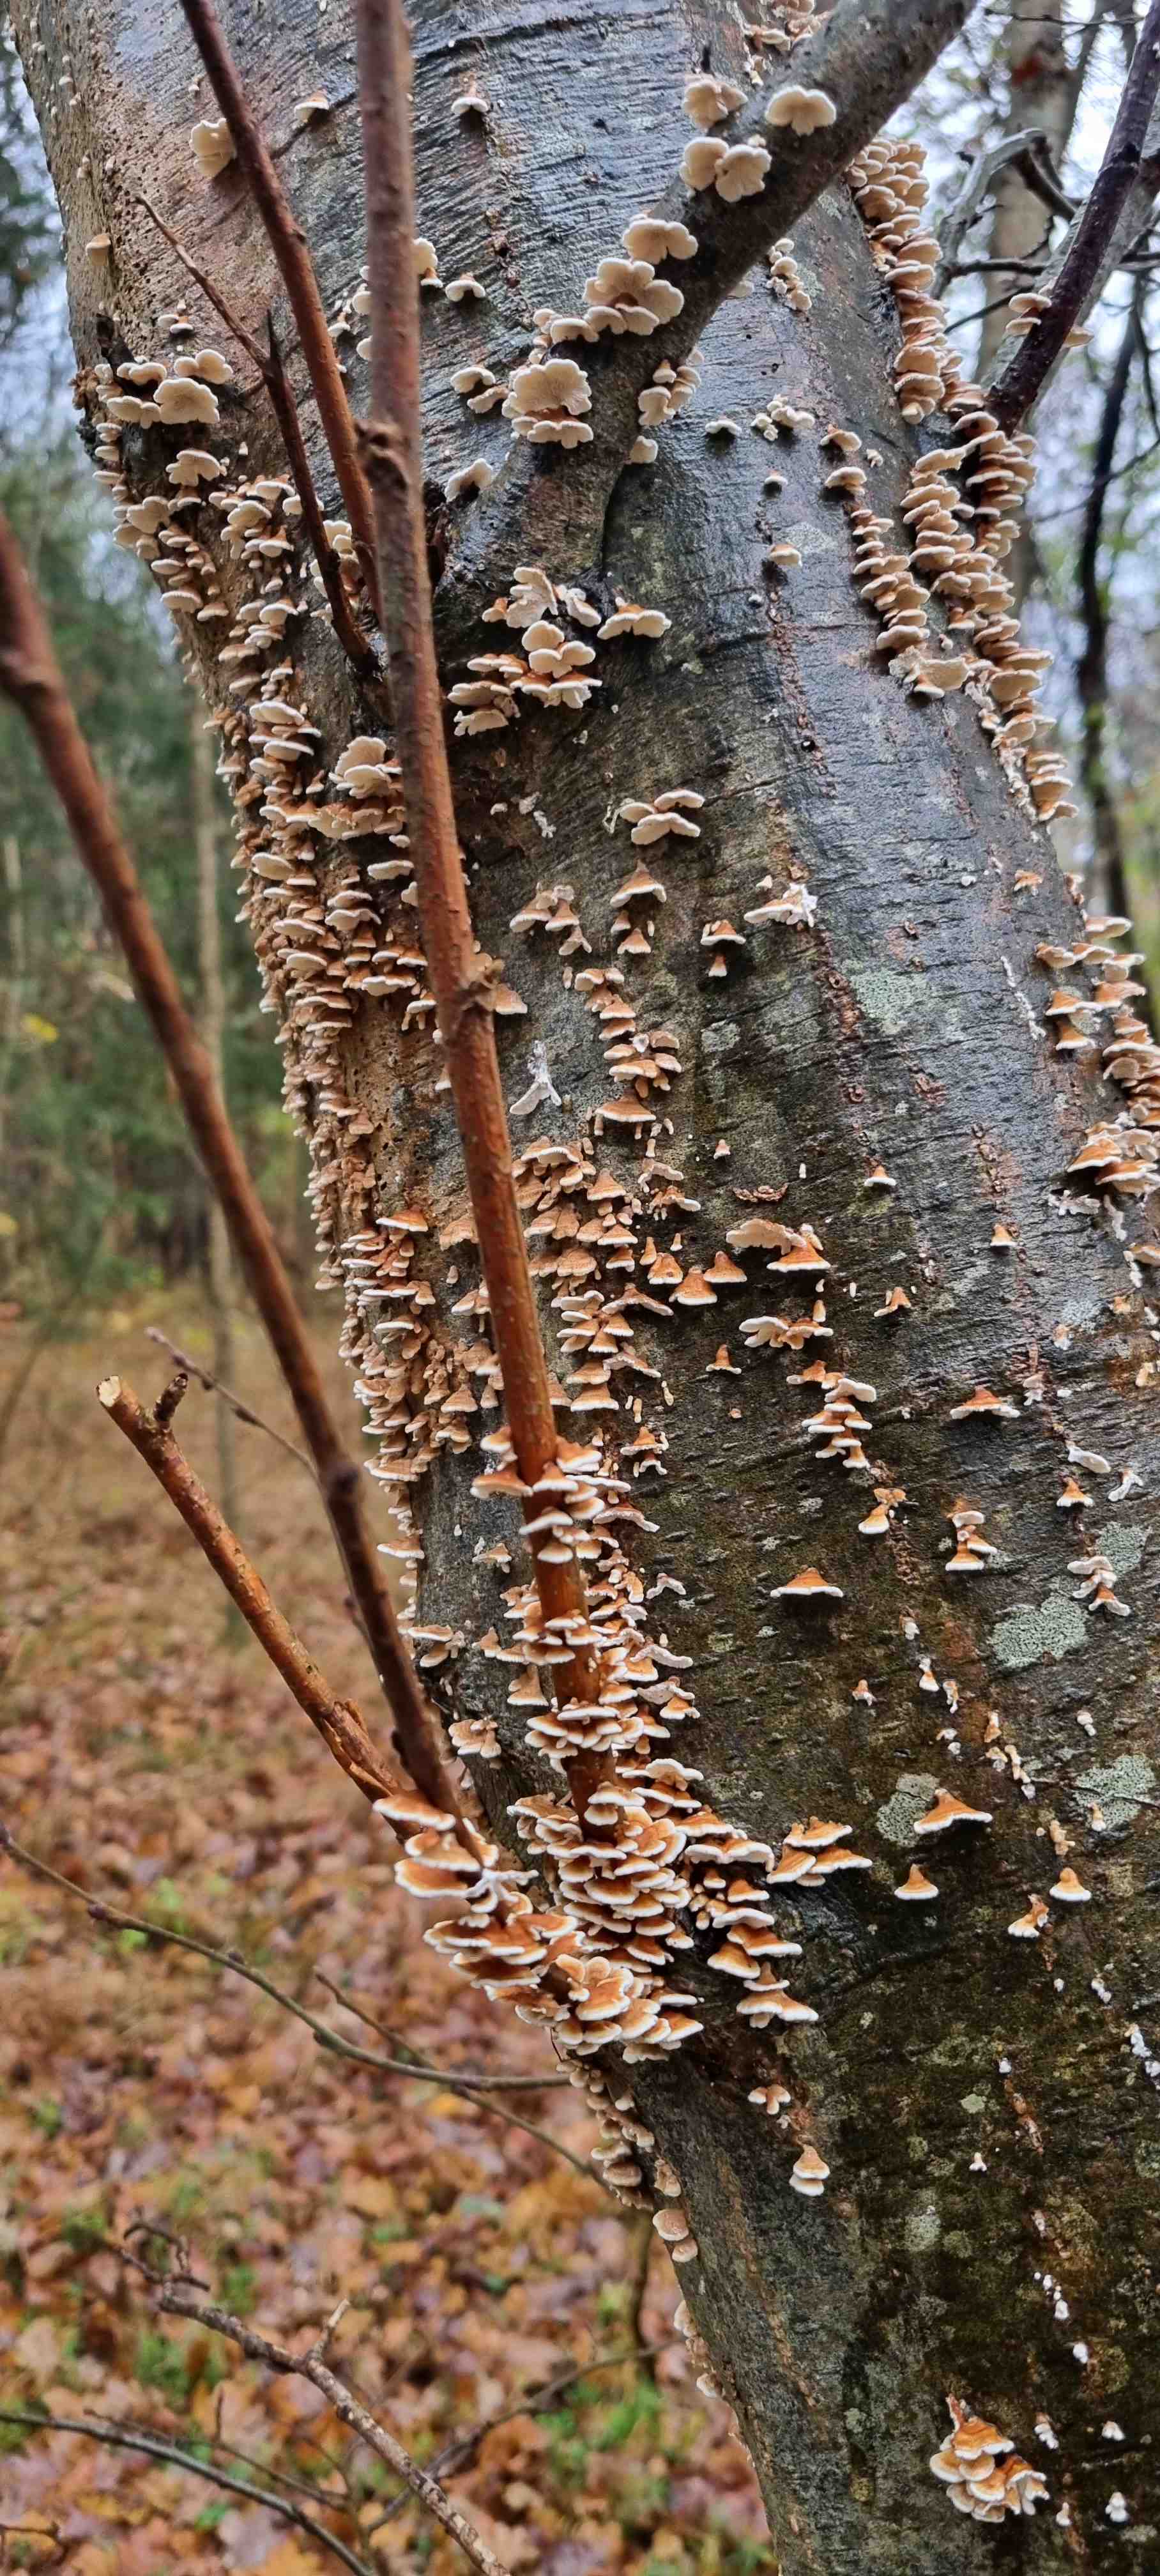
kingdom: Fungi
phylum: Basidiomycota
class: Agaricomycetes
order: Amylocorticiales
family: Amylocorticiaceae
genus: Plicaturopsis
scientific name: Plicaturopsis crispa
